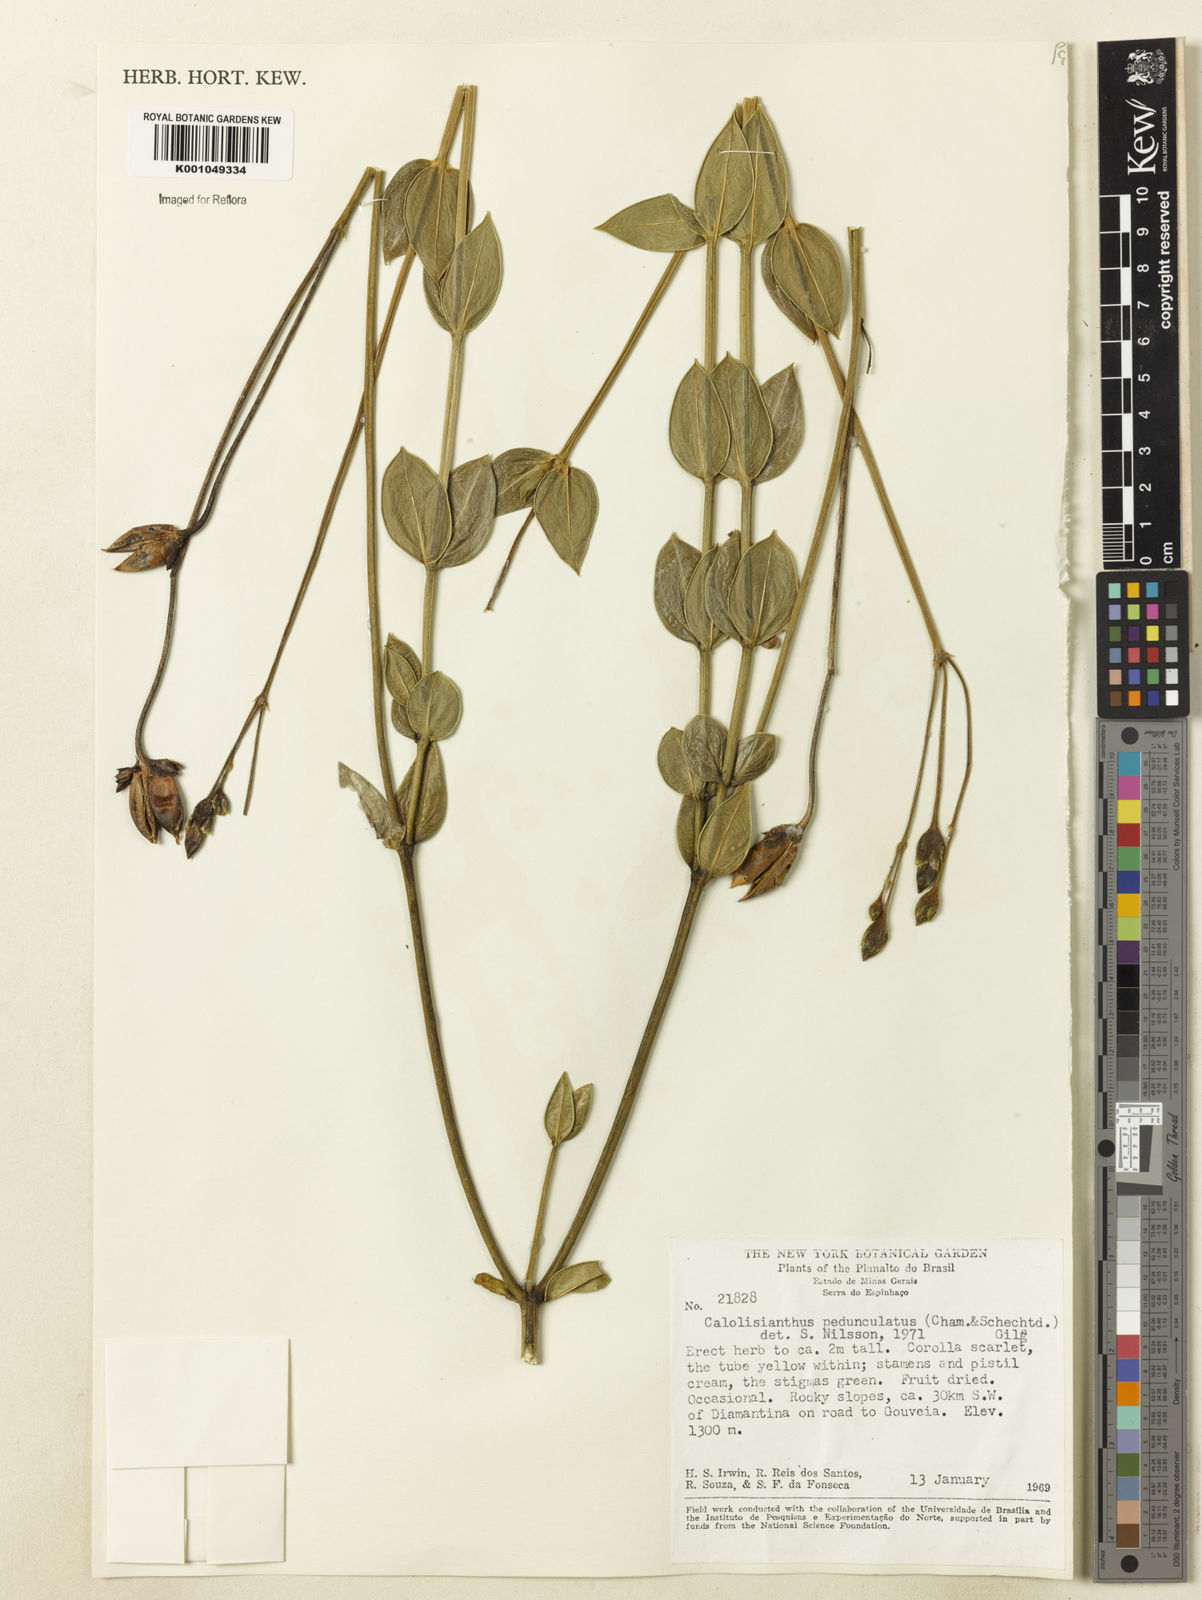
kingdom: Plantae
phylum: Tracheophyta
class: Magnoliopsida
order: Gentianales
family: Gentianaceae
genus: Calolisianthus
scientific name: Calolisianthus pedunculatus
